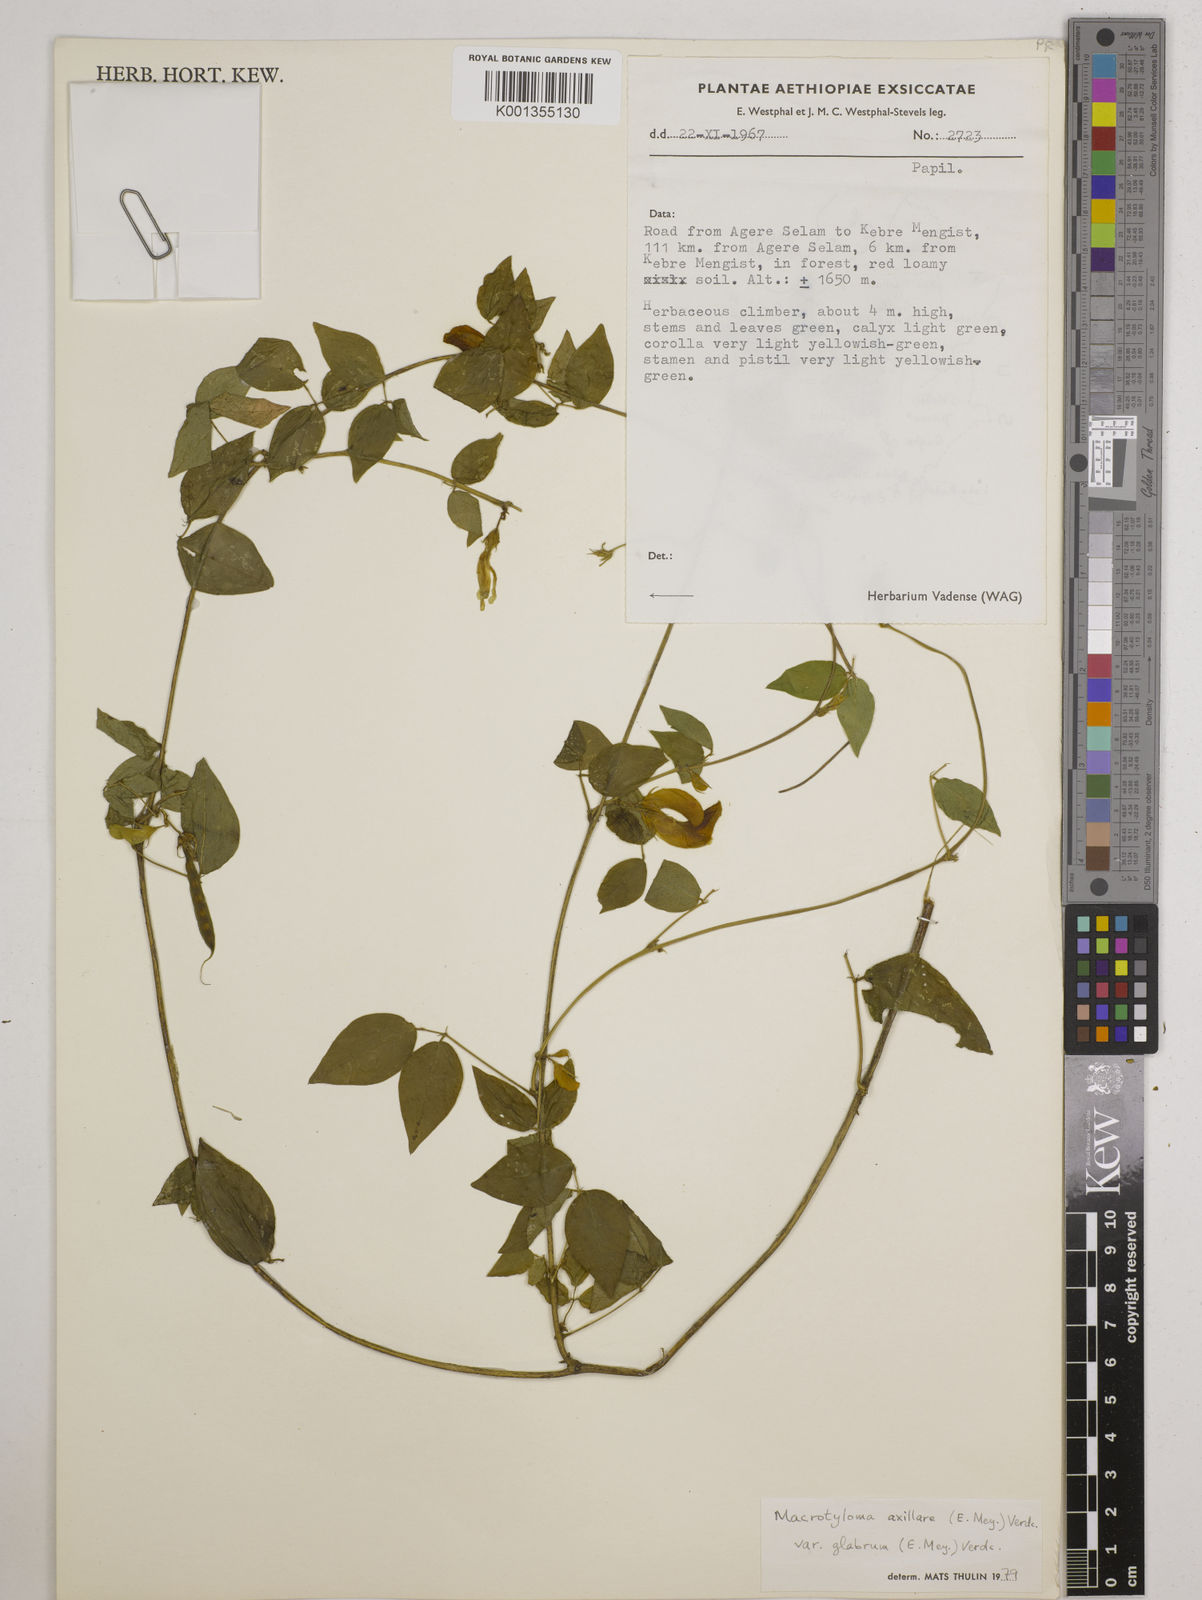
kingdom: Plantae
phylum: Tracheophyta
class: Magnoliopsida
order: Fabales
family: Fabaceae
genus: Macrotyloma
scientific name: Macrotyloma
